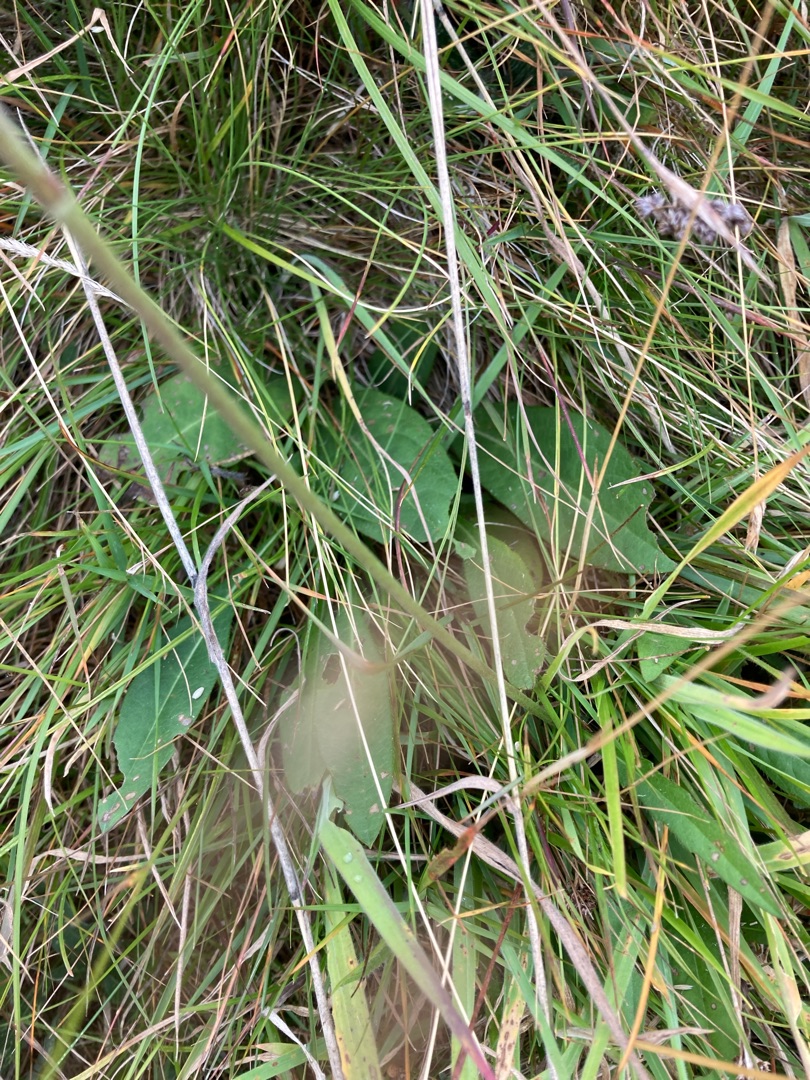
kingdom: Plantae
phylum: Tracheophyta
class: Magnoliopsida
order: Dipsacales
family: Caprifoliaceae
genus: Succisa
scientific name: Succisa pratensis
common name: Djævelsbid
